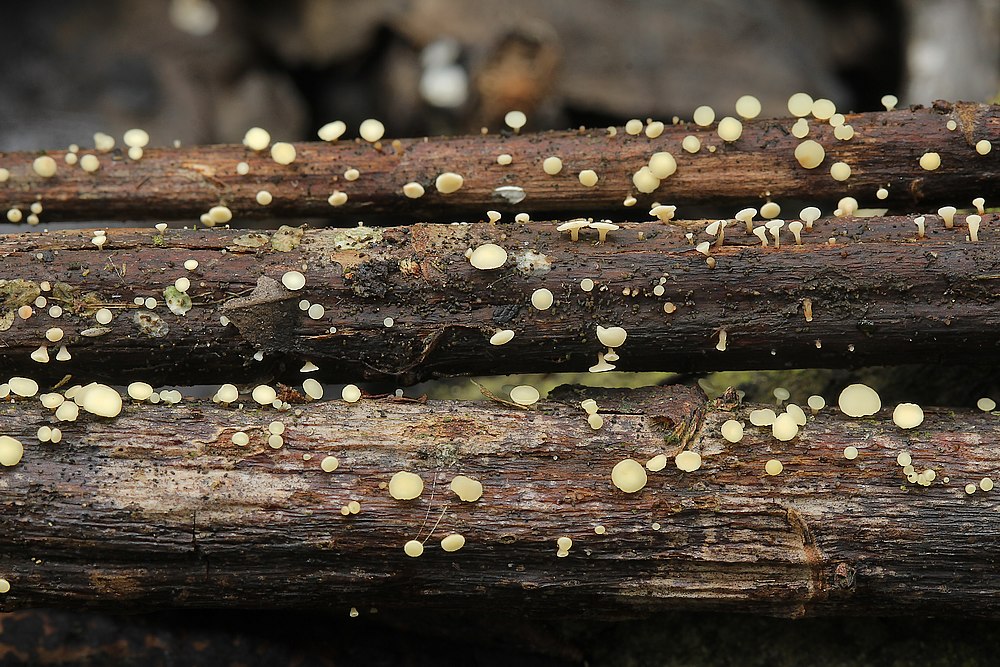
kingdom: Fungi
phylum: Ascomycota
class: Leotiomycetes
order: Helotiales
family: Helotiaceae
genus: Hymenoscyphus
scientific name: Hymenoscyphus scutula
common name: almindelig stilkskive
